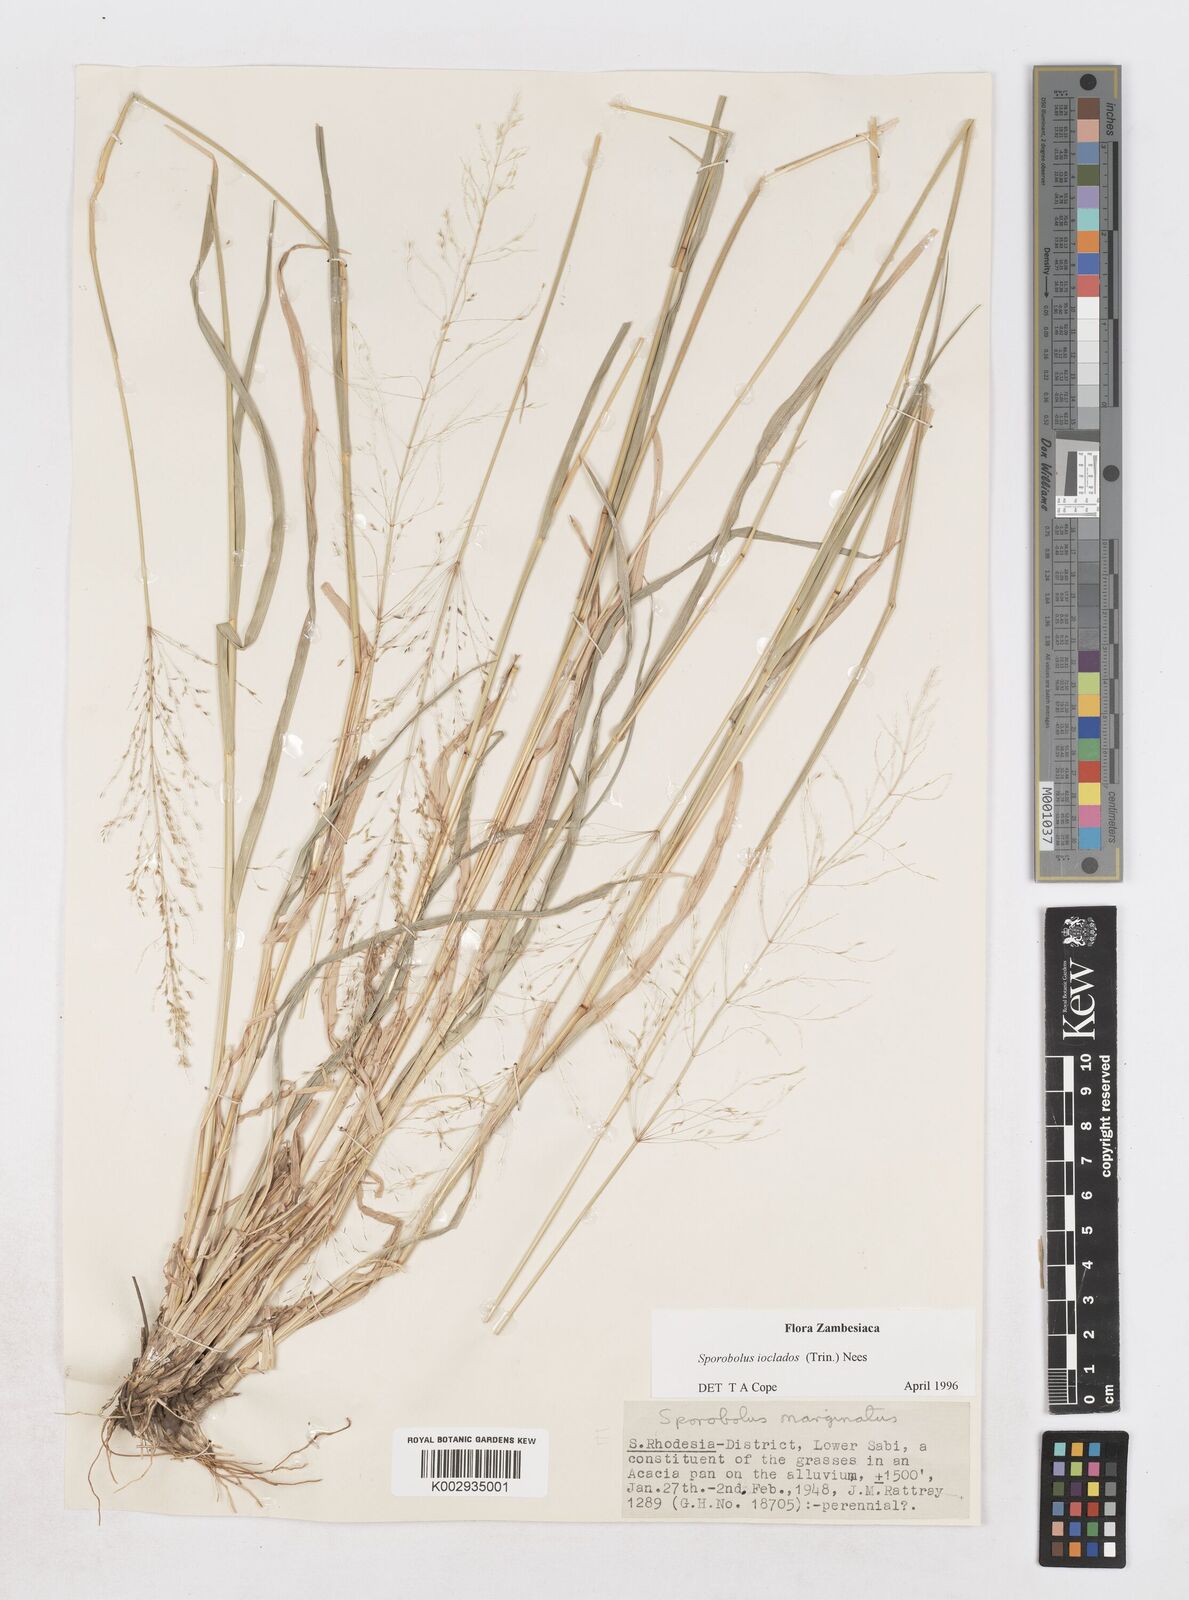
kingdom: Plantae
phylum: Tracheophyta
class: Liliopsida
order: Poales
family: Poaceae
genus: Sporobolus
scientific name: Sporobolus ioclados
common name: Pan dropseed
